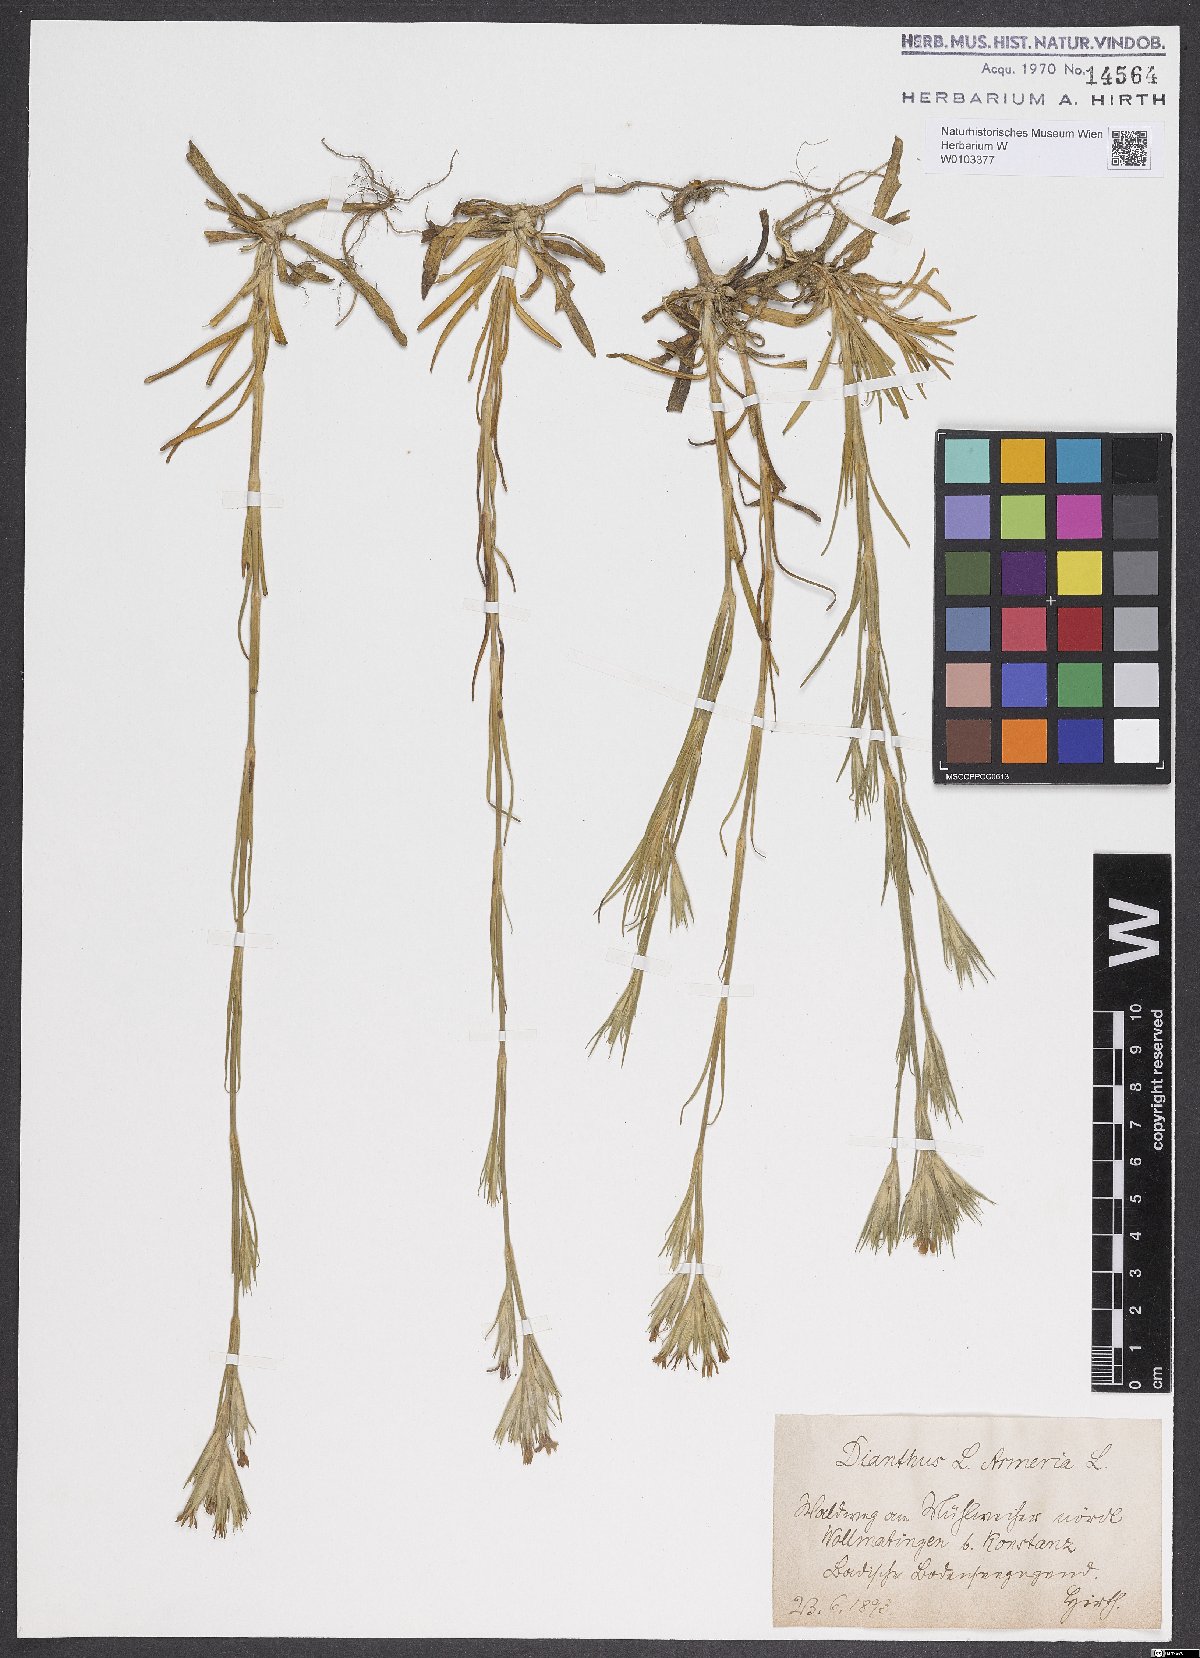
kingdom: Plantae
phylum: Tracheophyta
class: Magnoliopsida
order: Caryophyllales
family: Caryophyllaceae
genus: Dianthus
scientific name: Dianthus armeria
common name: Deptford pink
